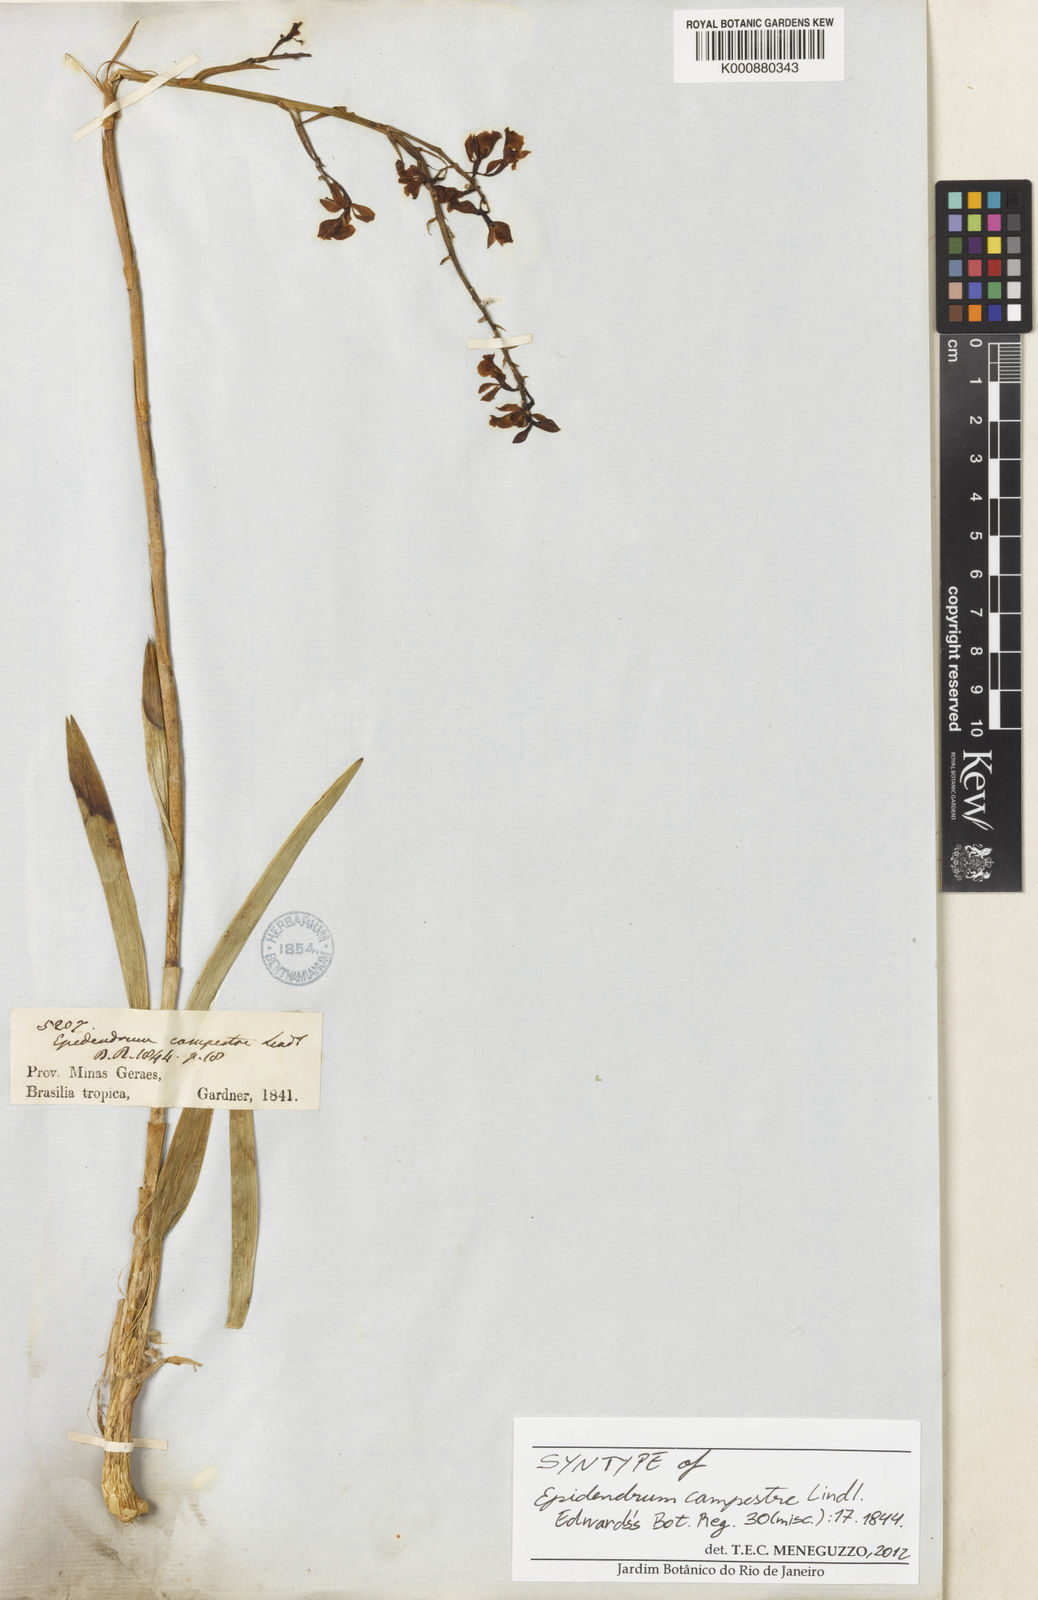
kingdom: Plantae
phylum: Tracheophyta
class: Liliopsida
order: Asparagales
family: Orchidaceae
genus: Epidendrum
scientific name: Epidendrum campestre
